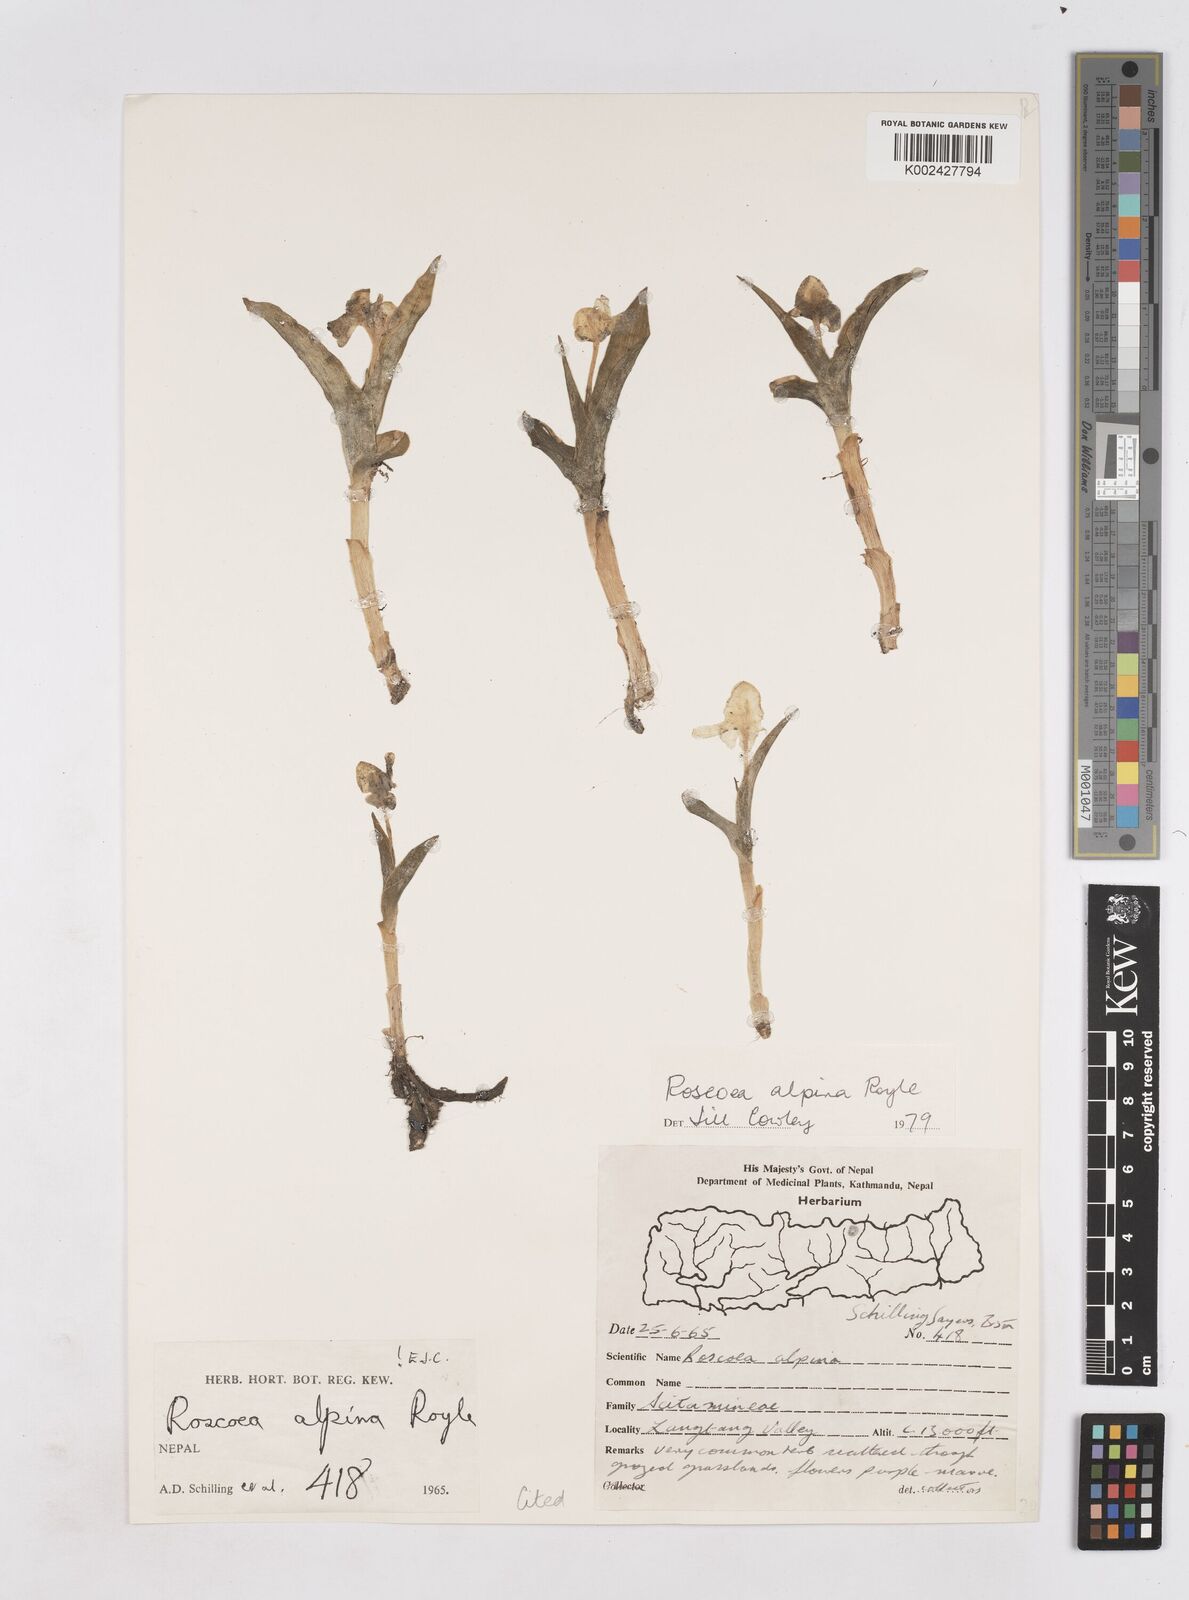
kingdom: Plantae
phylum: Tracheophyta
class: Liliopsida
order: Zingiberales
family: Zingiberaceae
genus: Roscoea
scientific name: Roscoea alpina
